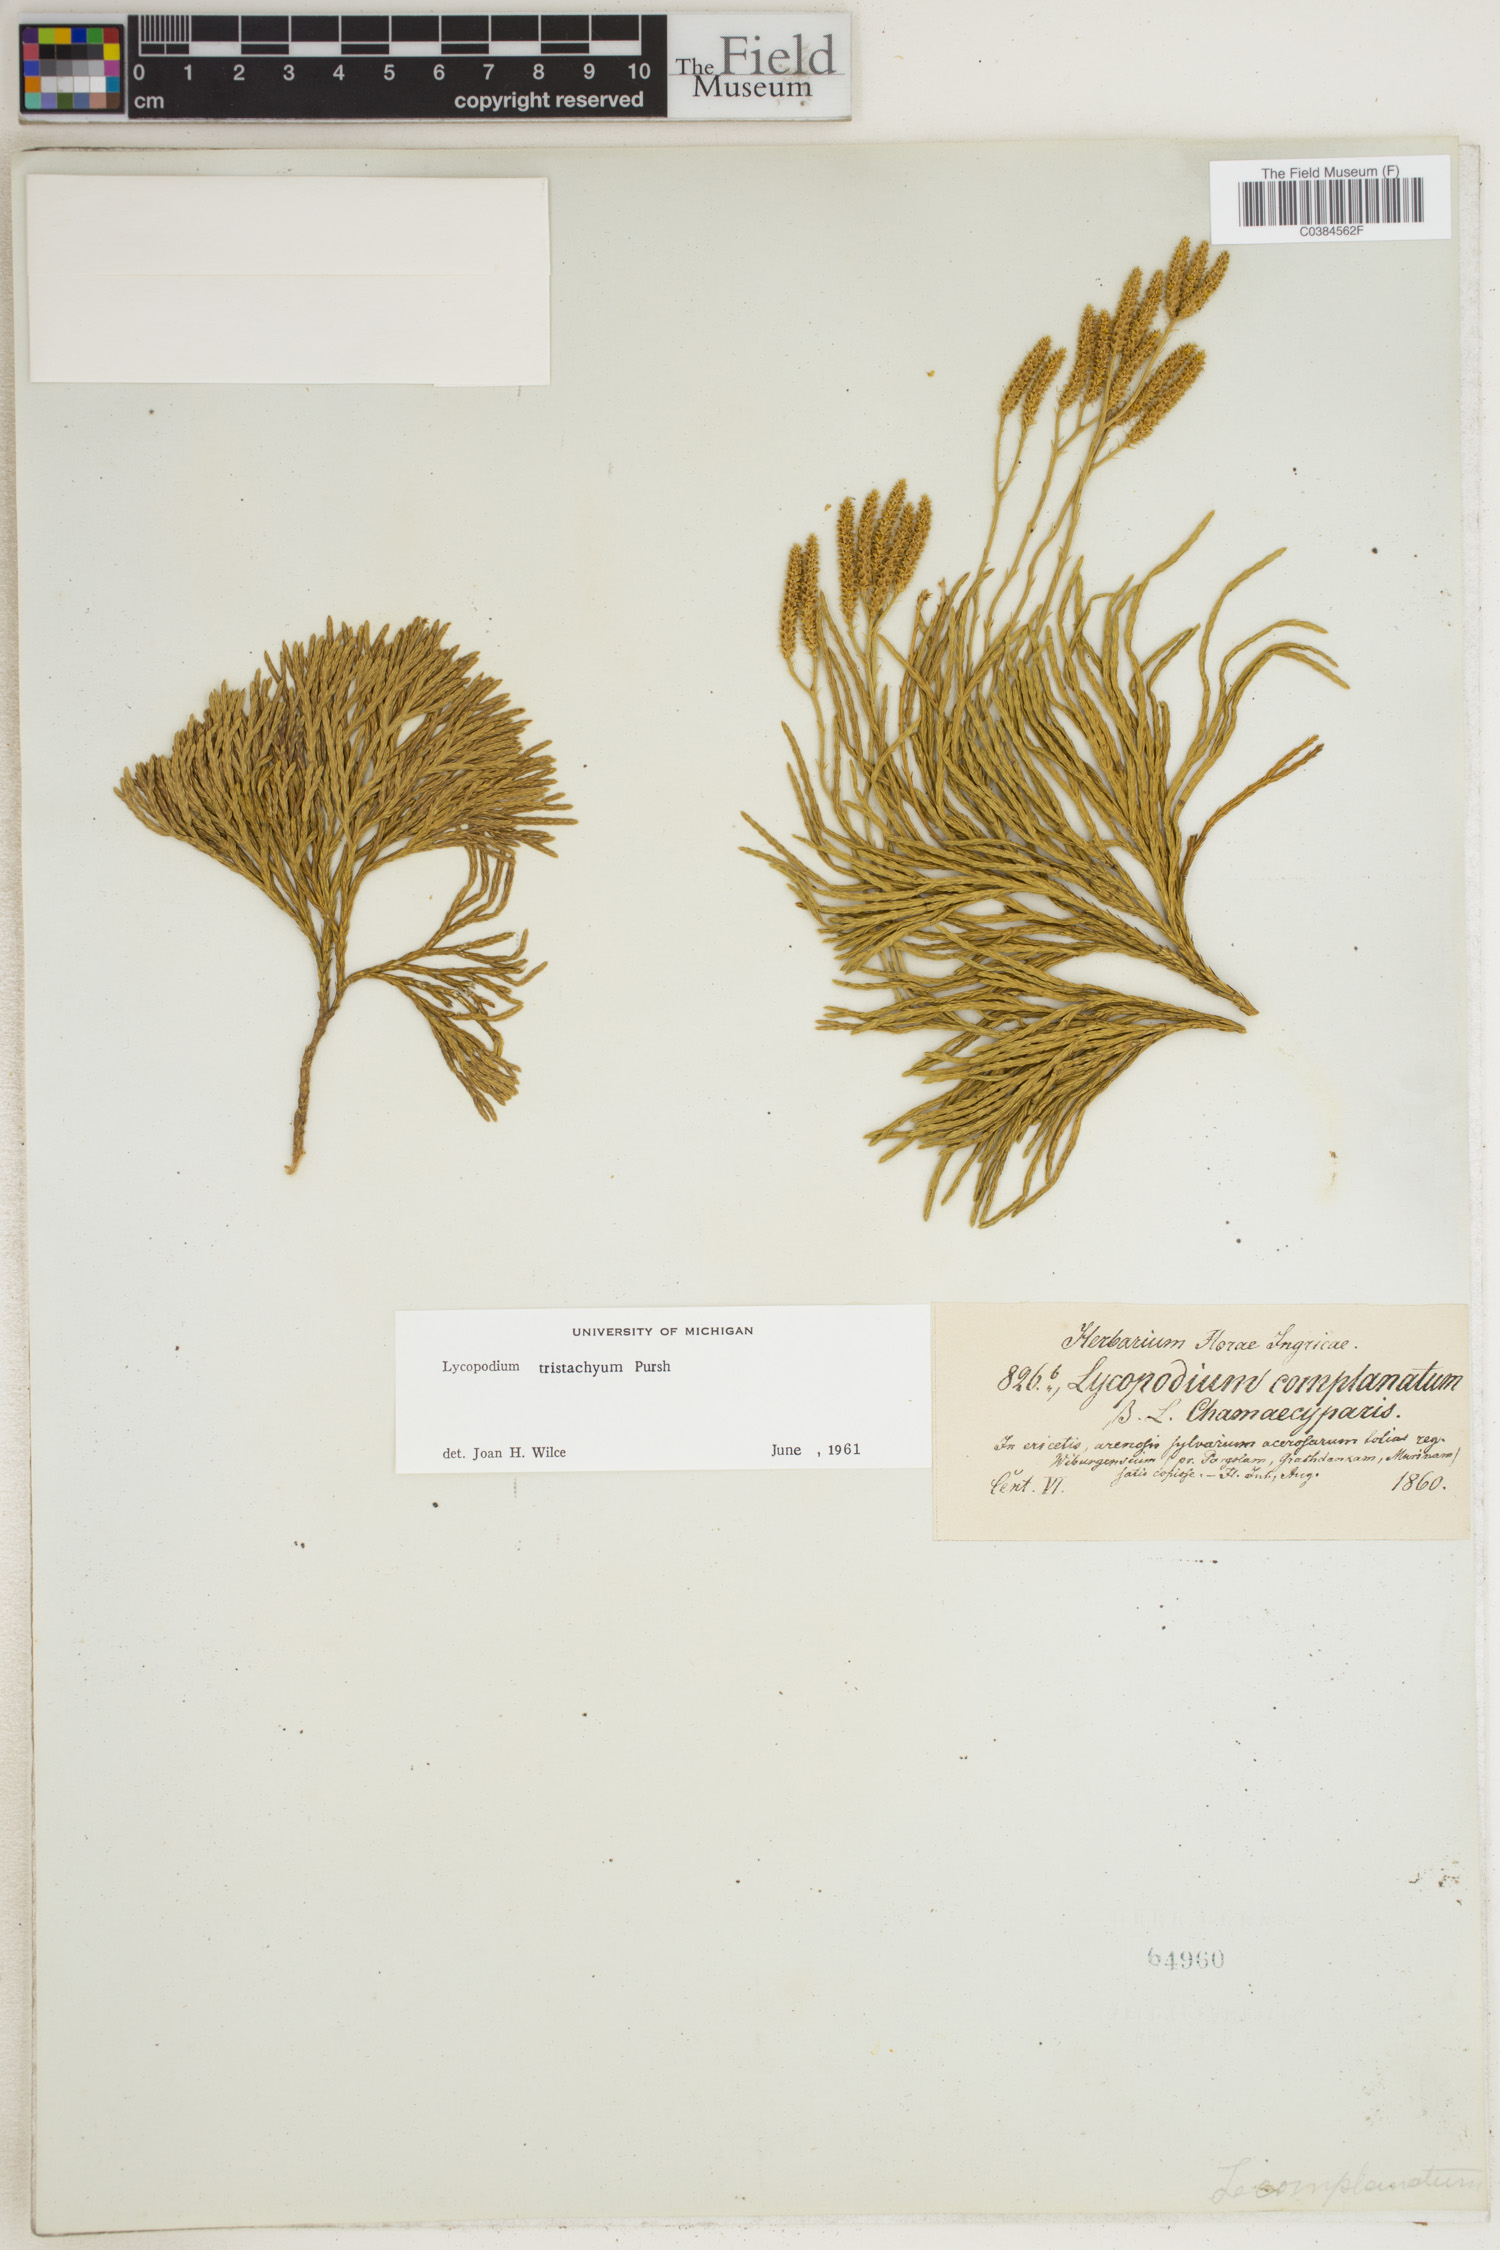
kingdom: Plantae
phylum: Tracheophyta
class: Lycopodiopsida
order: Lycopodiales
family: Lycopodiaceae
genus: Diphasiastrum
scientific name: Diphasiastrum tristachyum
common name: Blue ground-cedar
